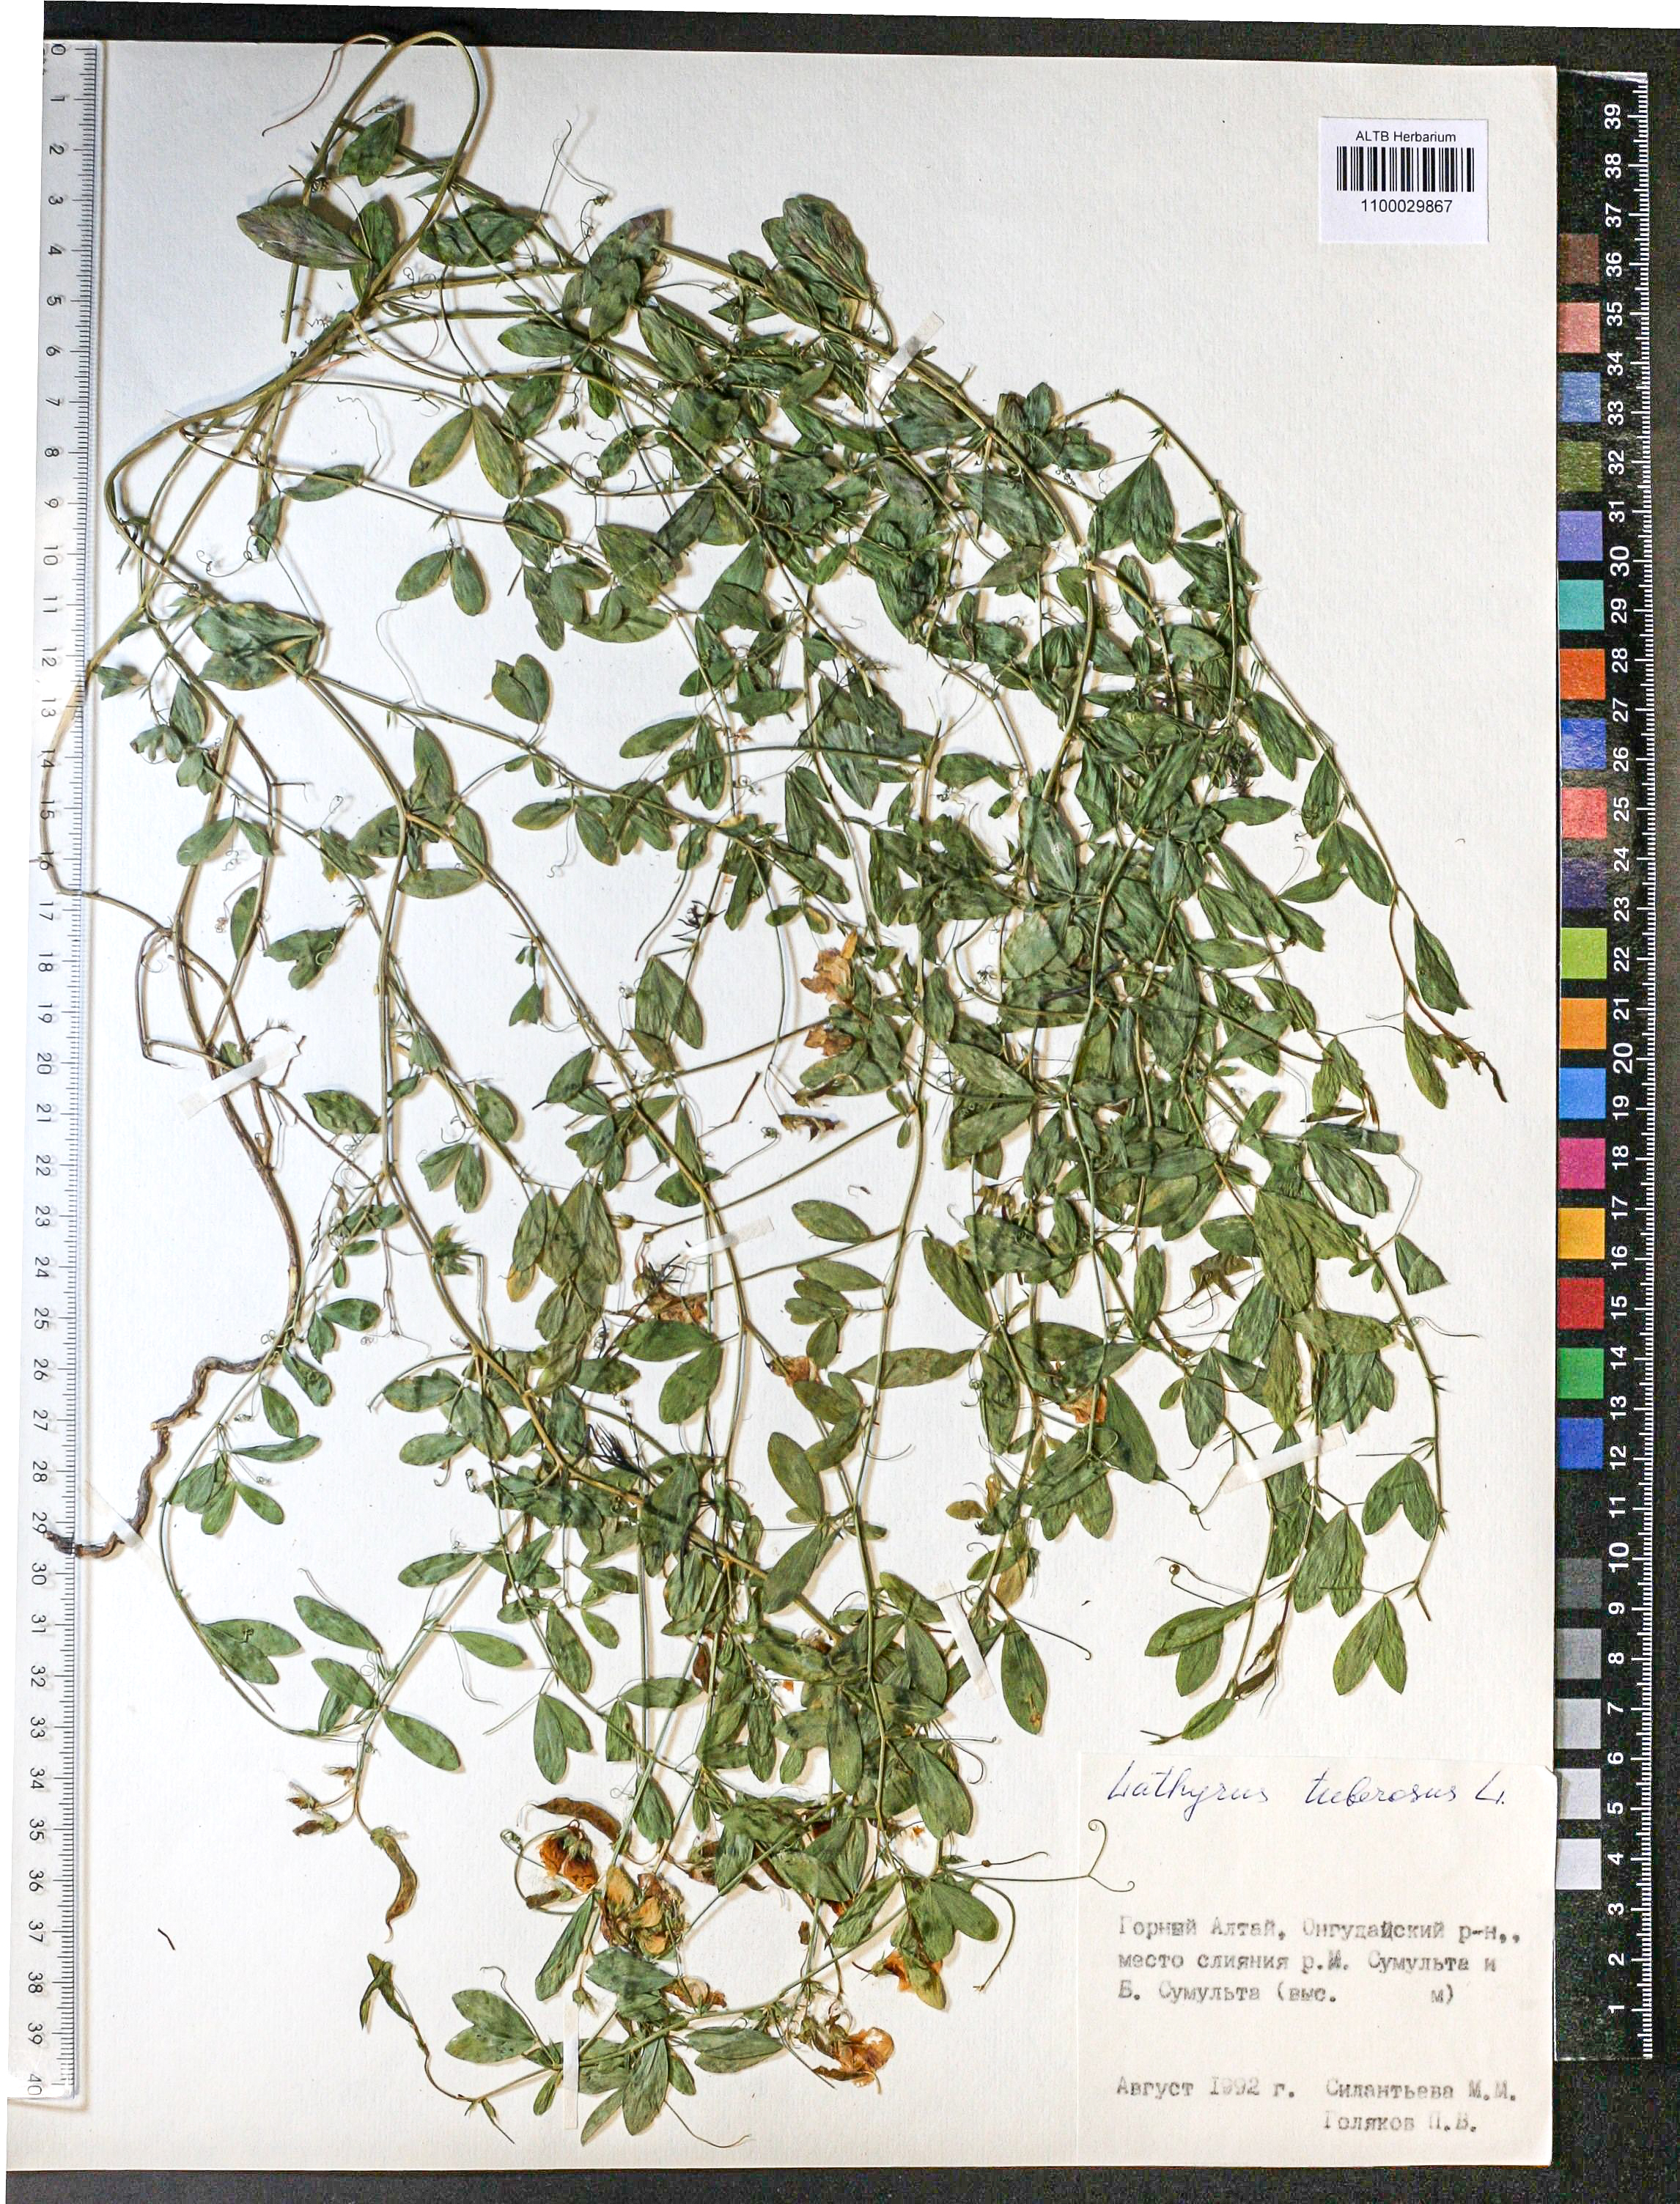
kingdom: Plantae
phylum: Tracheophyta
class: Magnoliopsida
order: Fabales
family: Fabaceae
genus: Lathyrus
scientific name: Lathyrus tuberosus
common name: Tuberous pea
